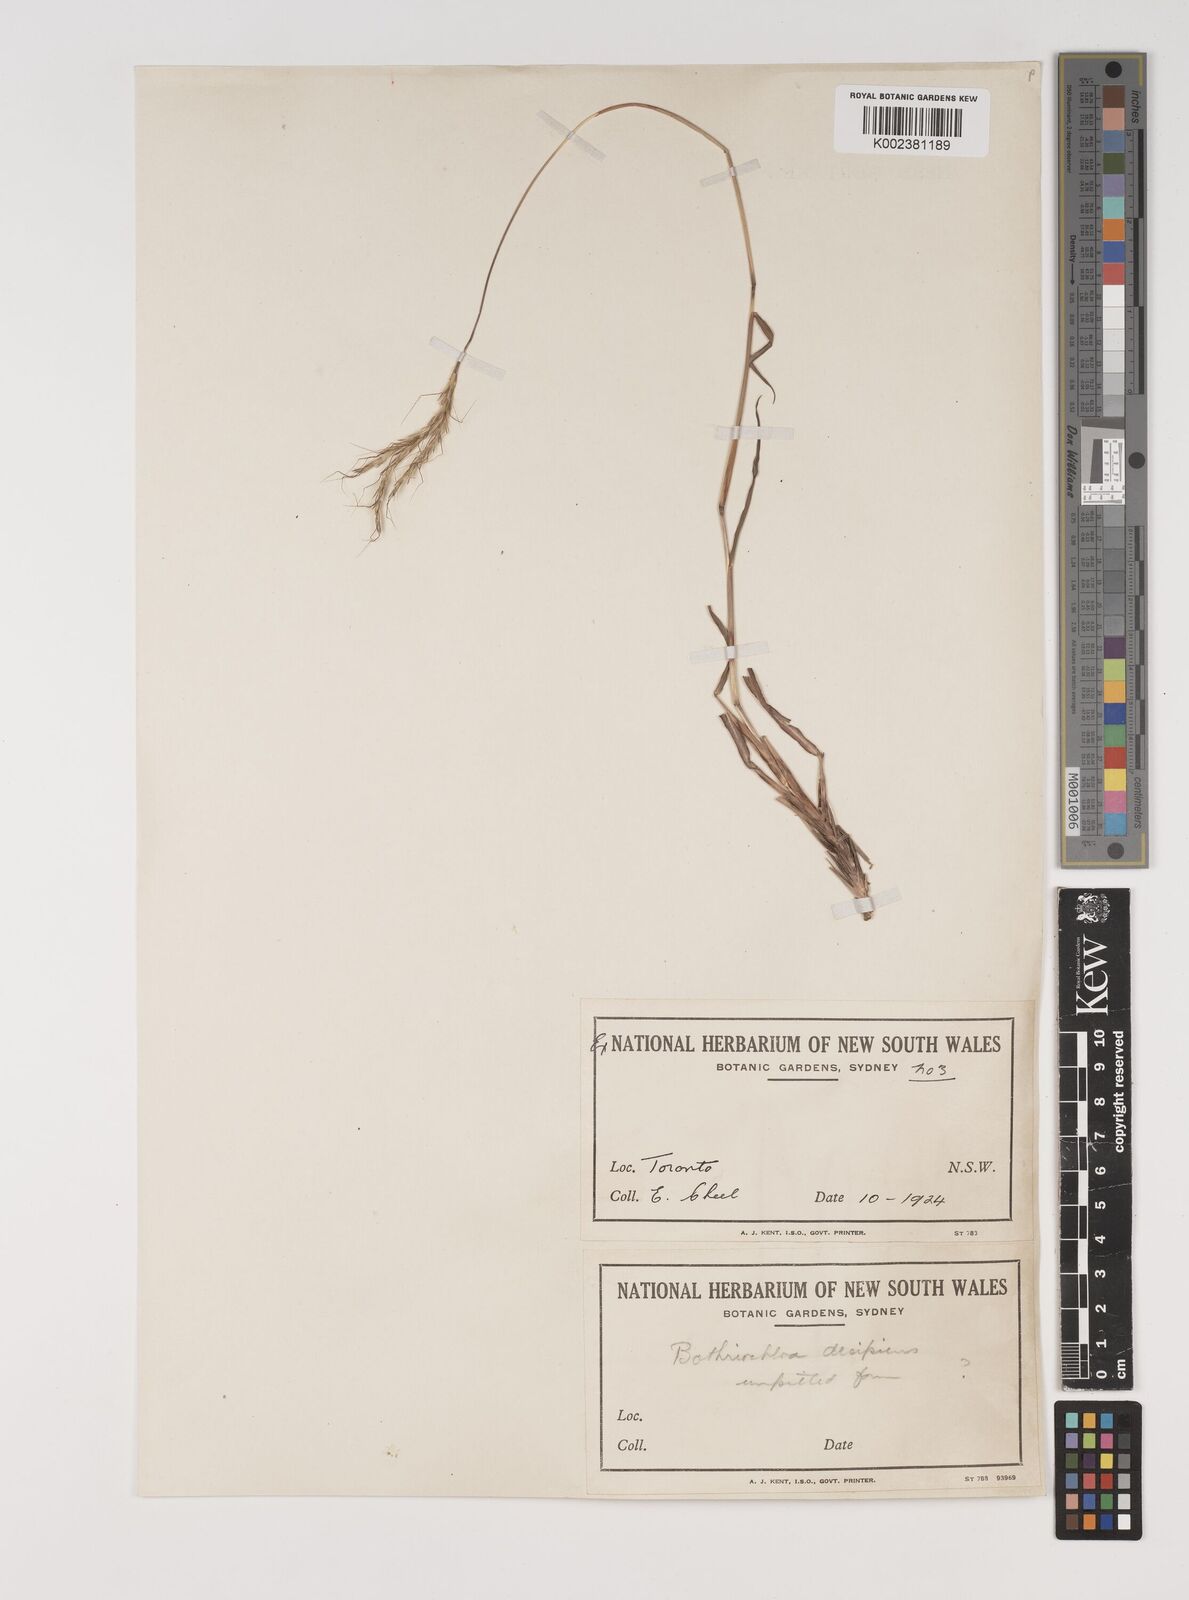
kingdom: Plantae
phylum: Tracheophyta
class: Liliopsida
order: Poales
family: Poaceae
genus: Bothriochloa
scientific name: Bothriochloa macra
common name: Pitted beard grass
